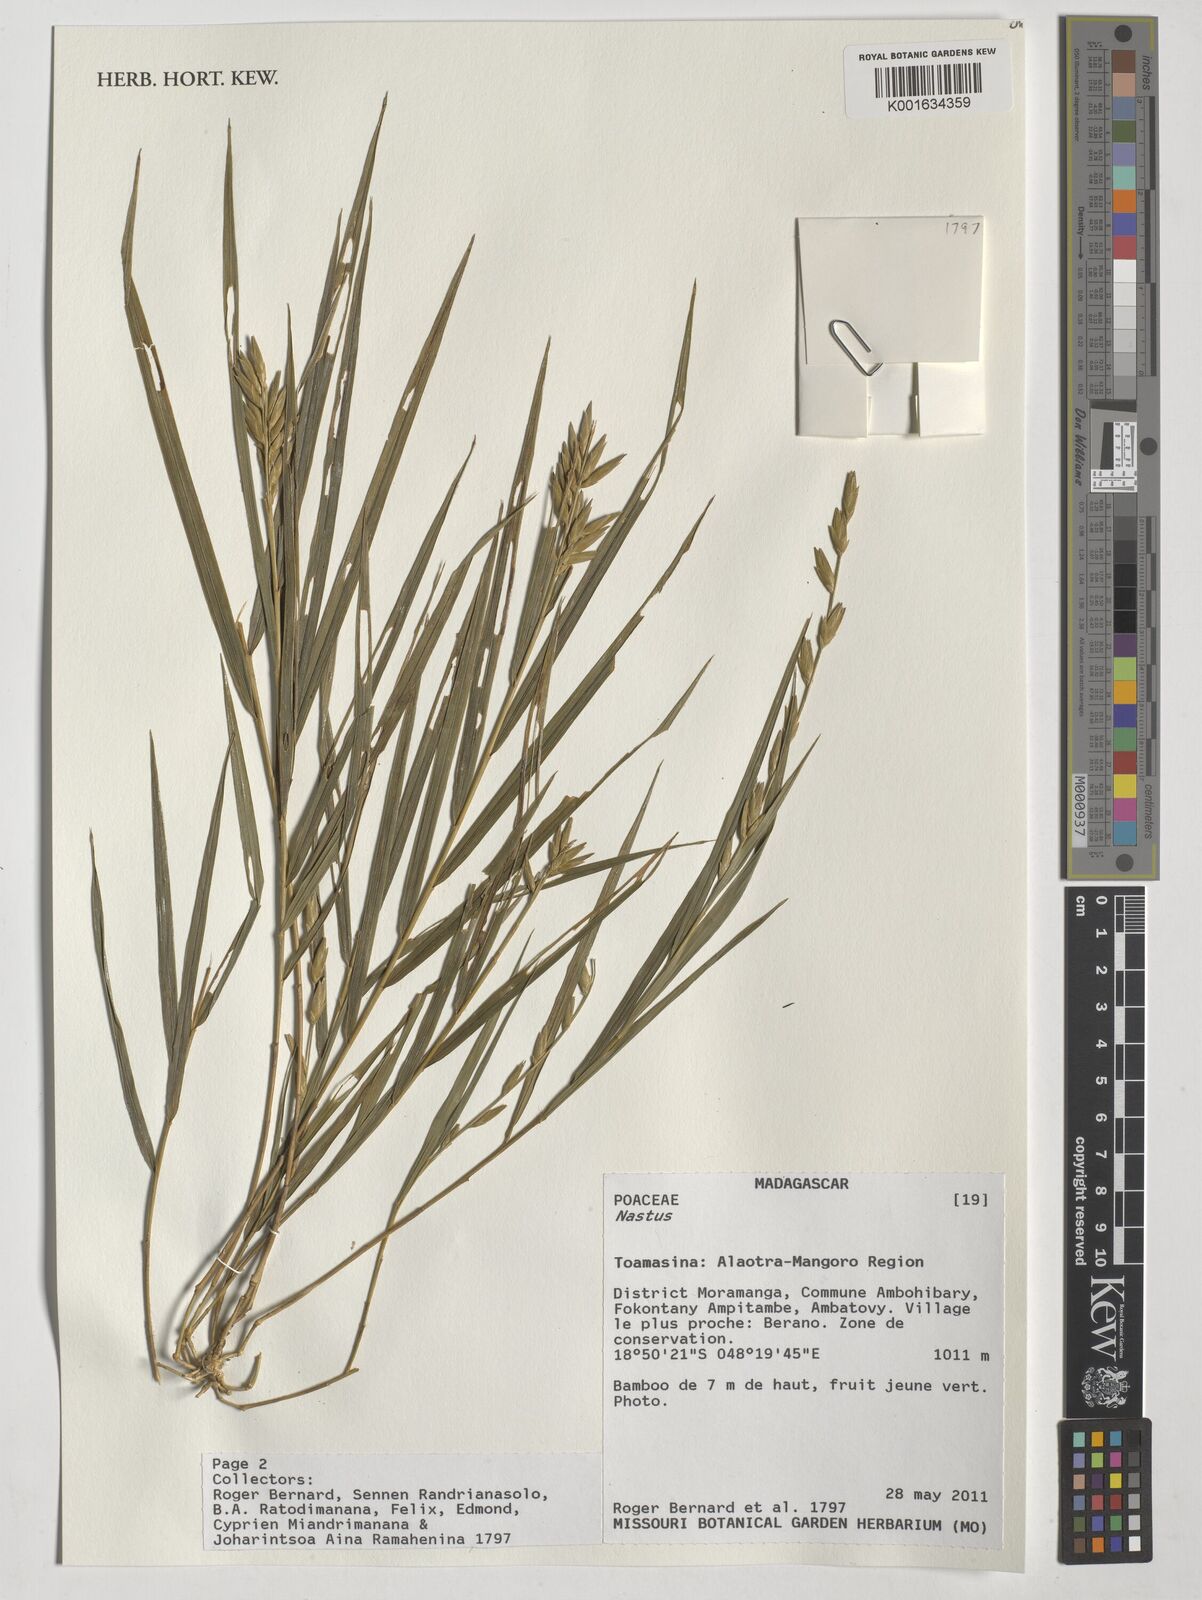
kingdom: Plantae
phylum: Tracheophyta
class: Liliopsida
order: Poales
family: Poaceae
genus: Nastus
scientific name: Nastus
